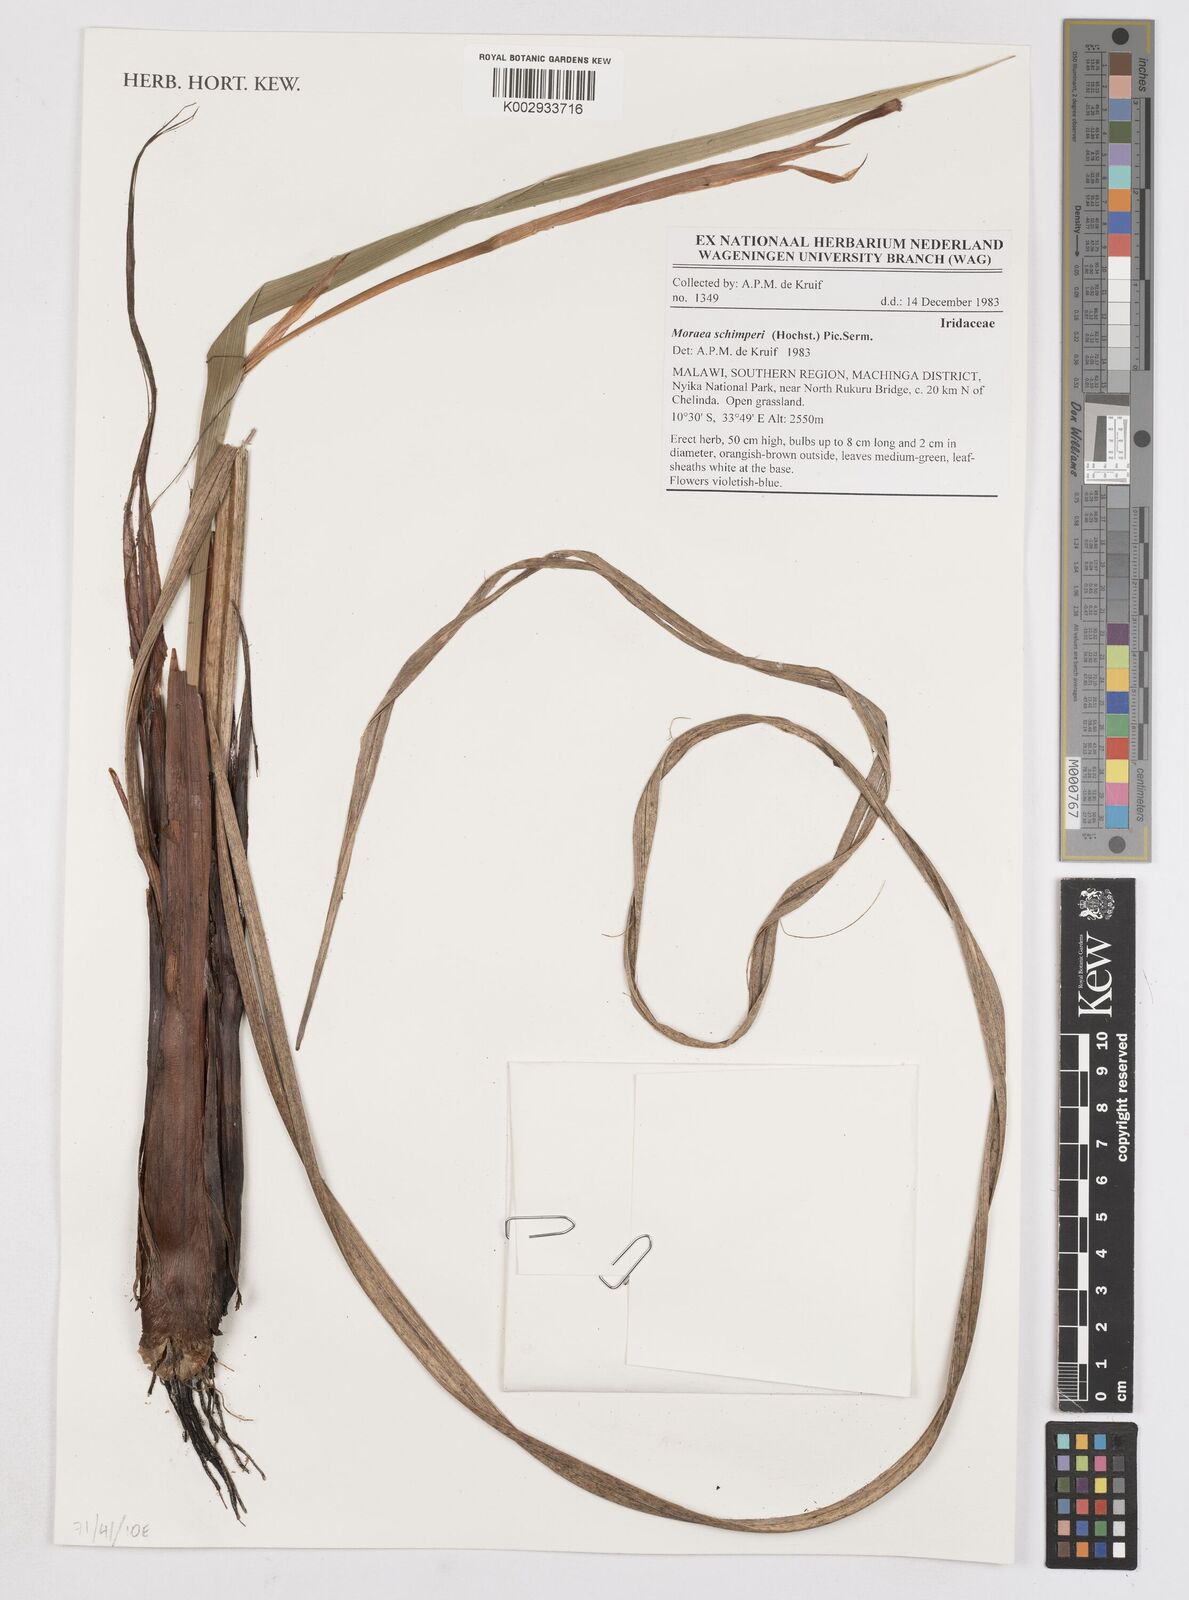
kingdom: Plantae
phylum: Tracheophyta
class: Liliopsida
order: Asparagales
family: Iridaceae
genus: Moraea
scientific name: Moraea schimperi
